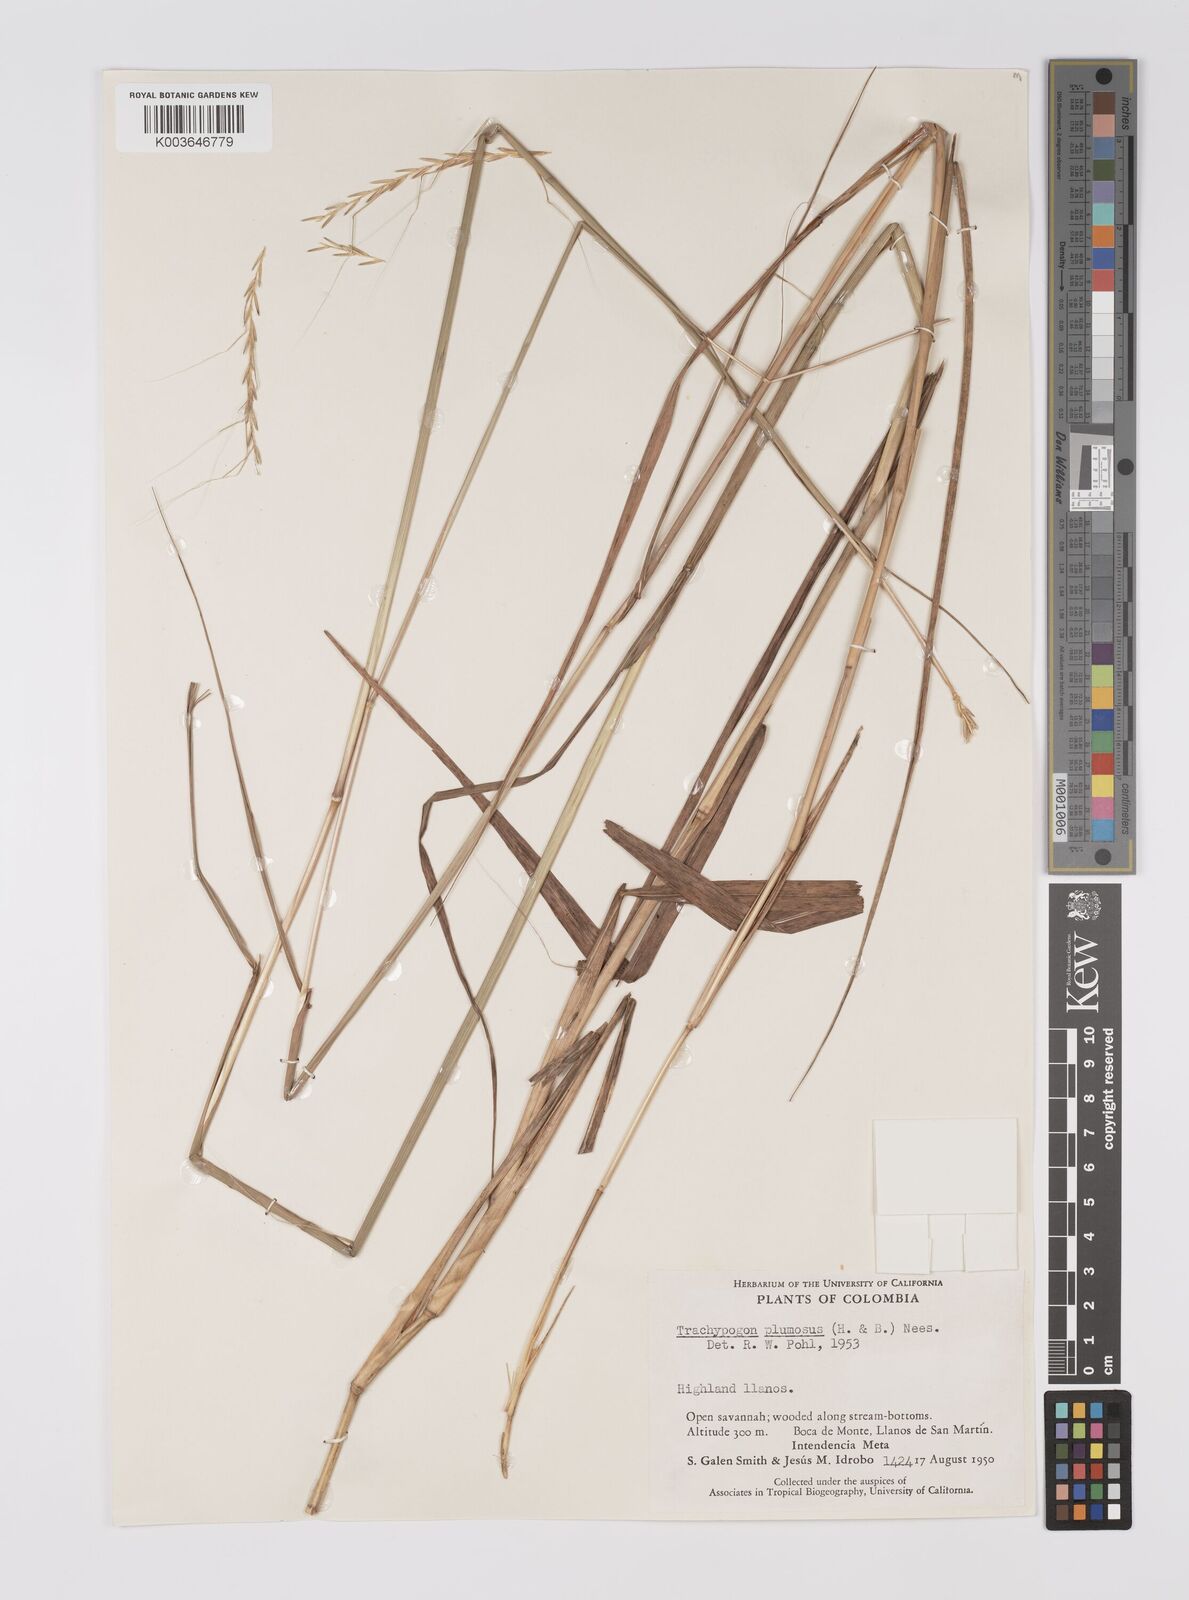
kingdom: Plantae
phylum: Tracheophyta
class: Liliopsida
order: Poales
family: Poaceae
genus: Trachypogon
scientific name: Trachypogon spicatus
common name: Crinkle-awn
